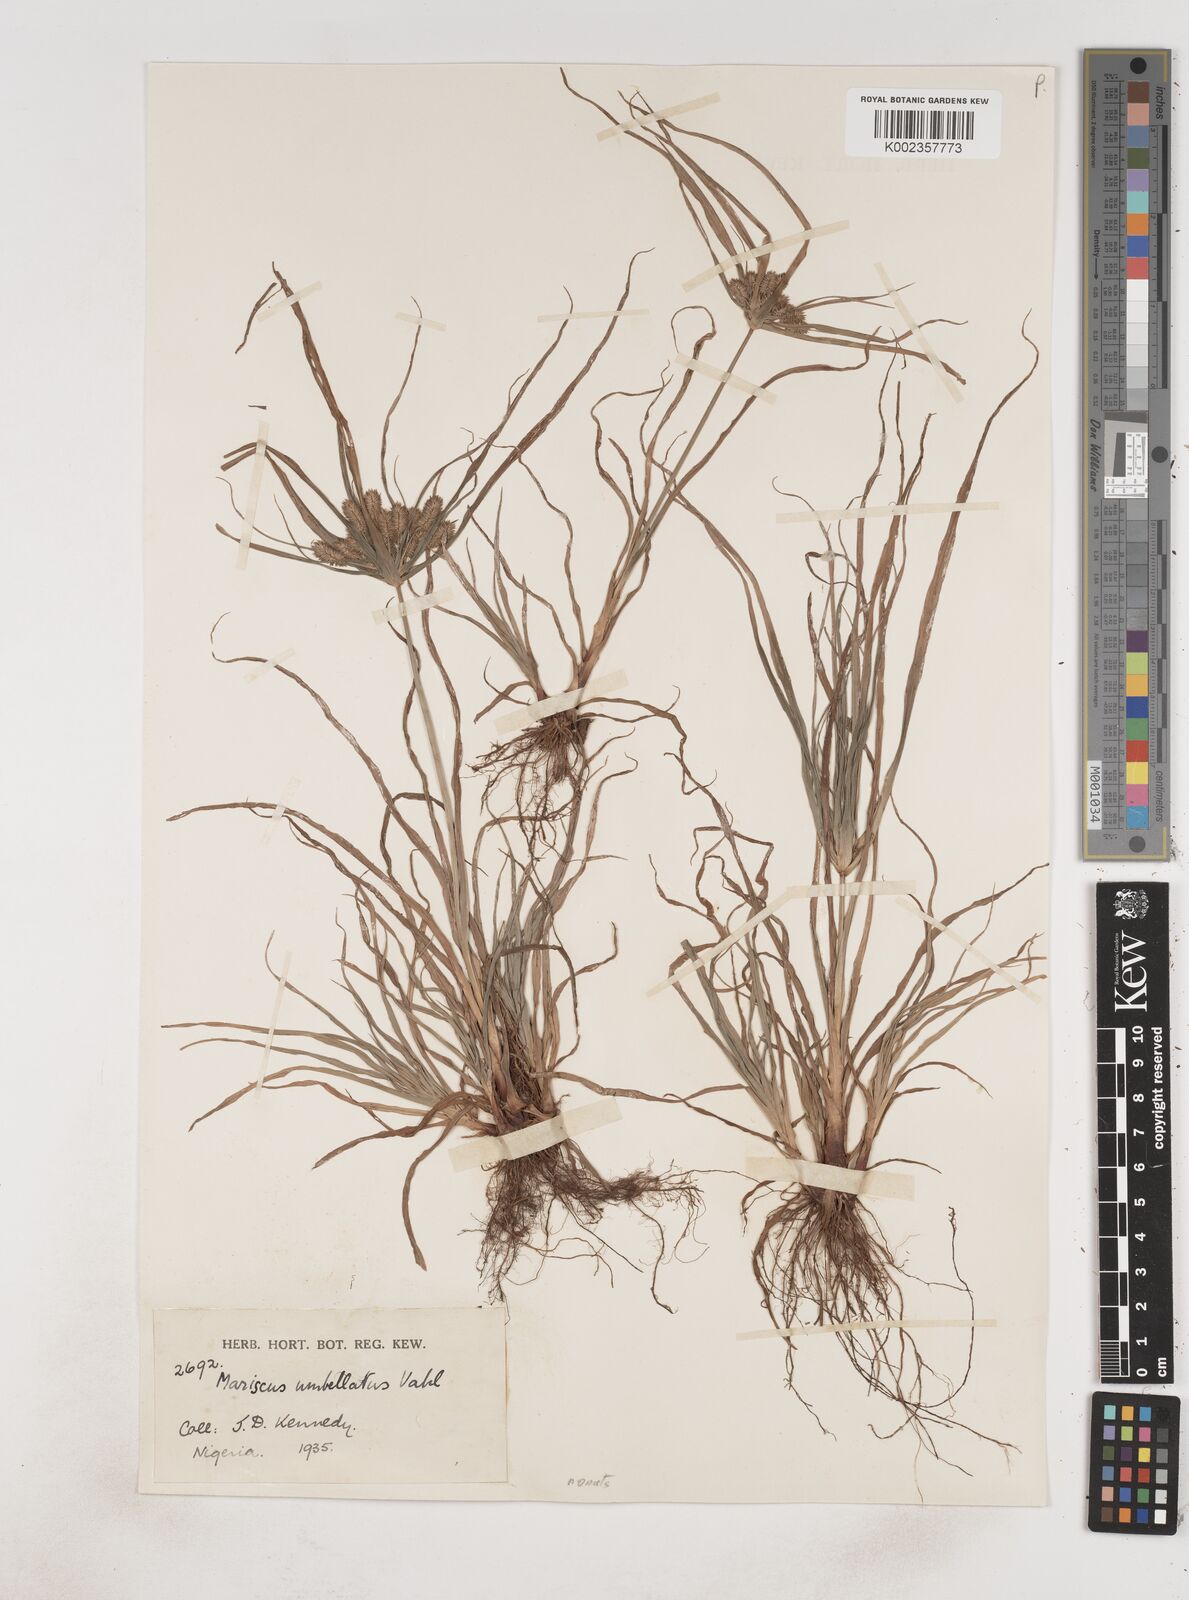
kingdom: Plantae
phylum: Tracheophyta
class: Liliopsida
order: Poales
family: Cyperaceae
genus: Cyperus
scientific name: Cyperus sublimis
